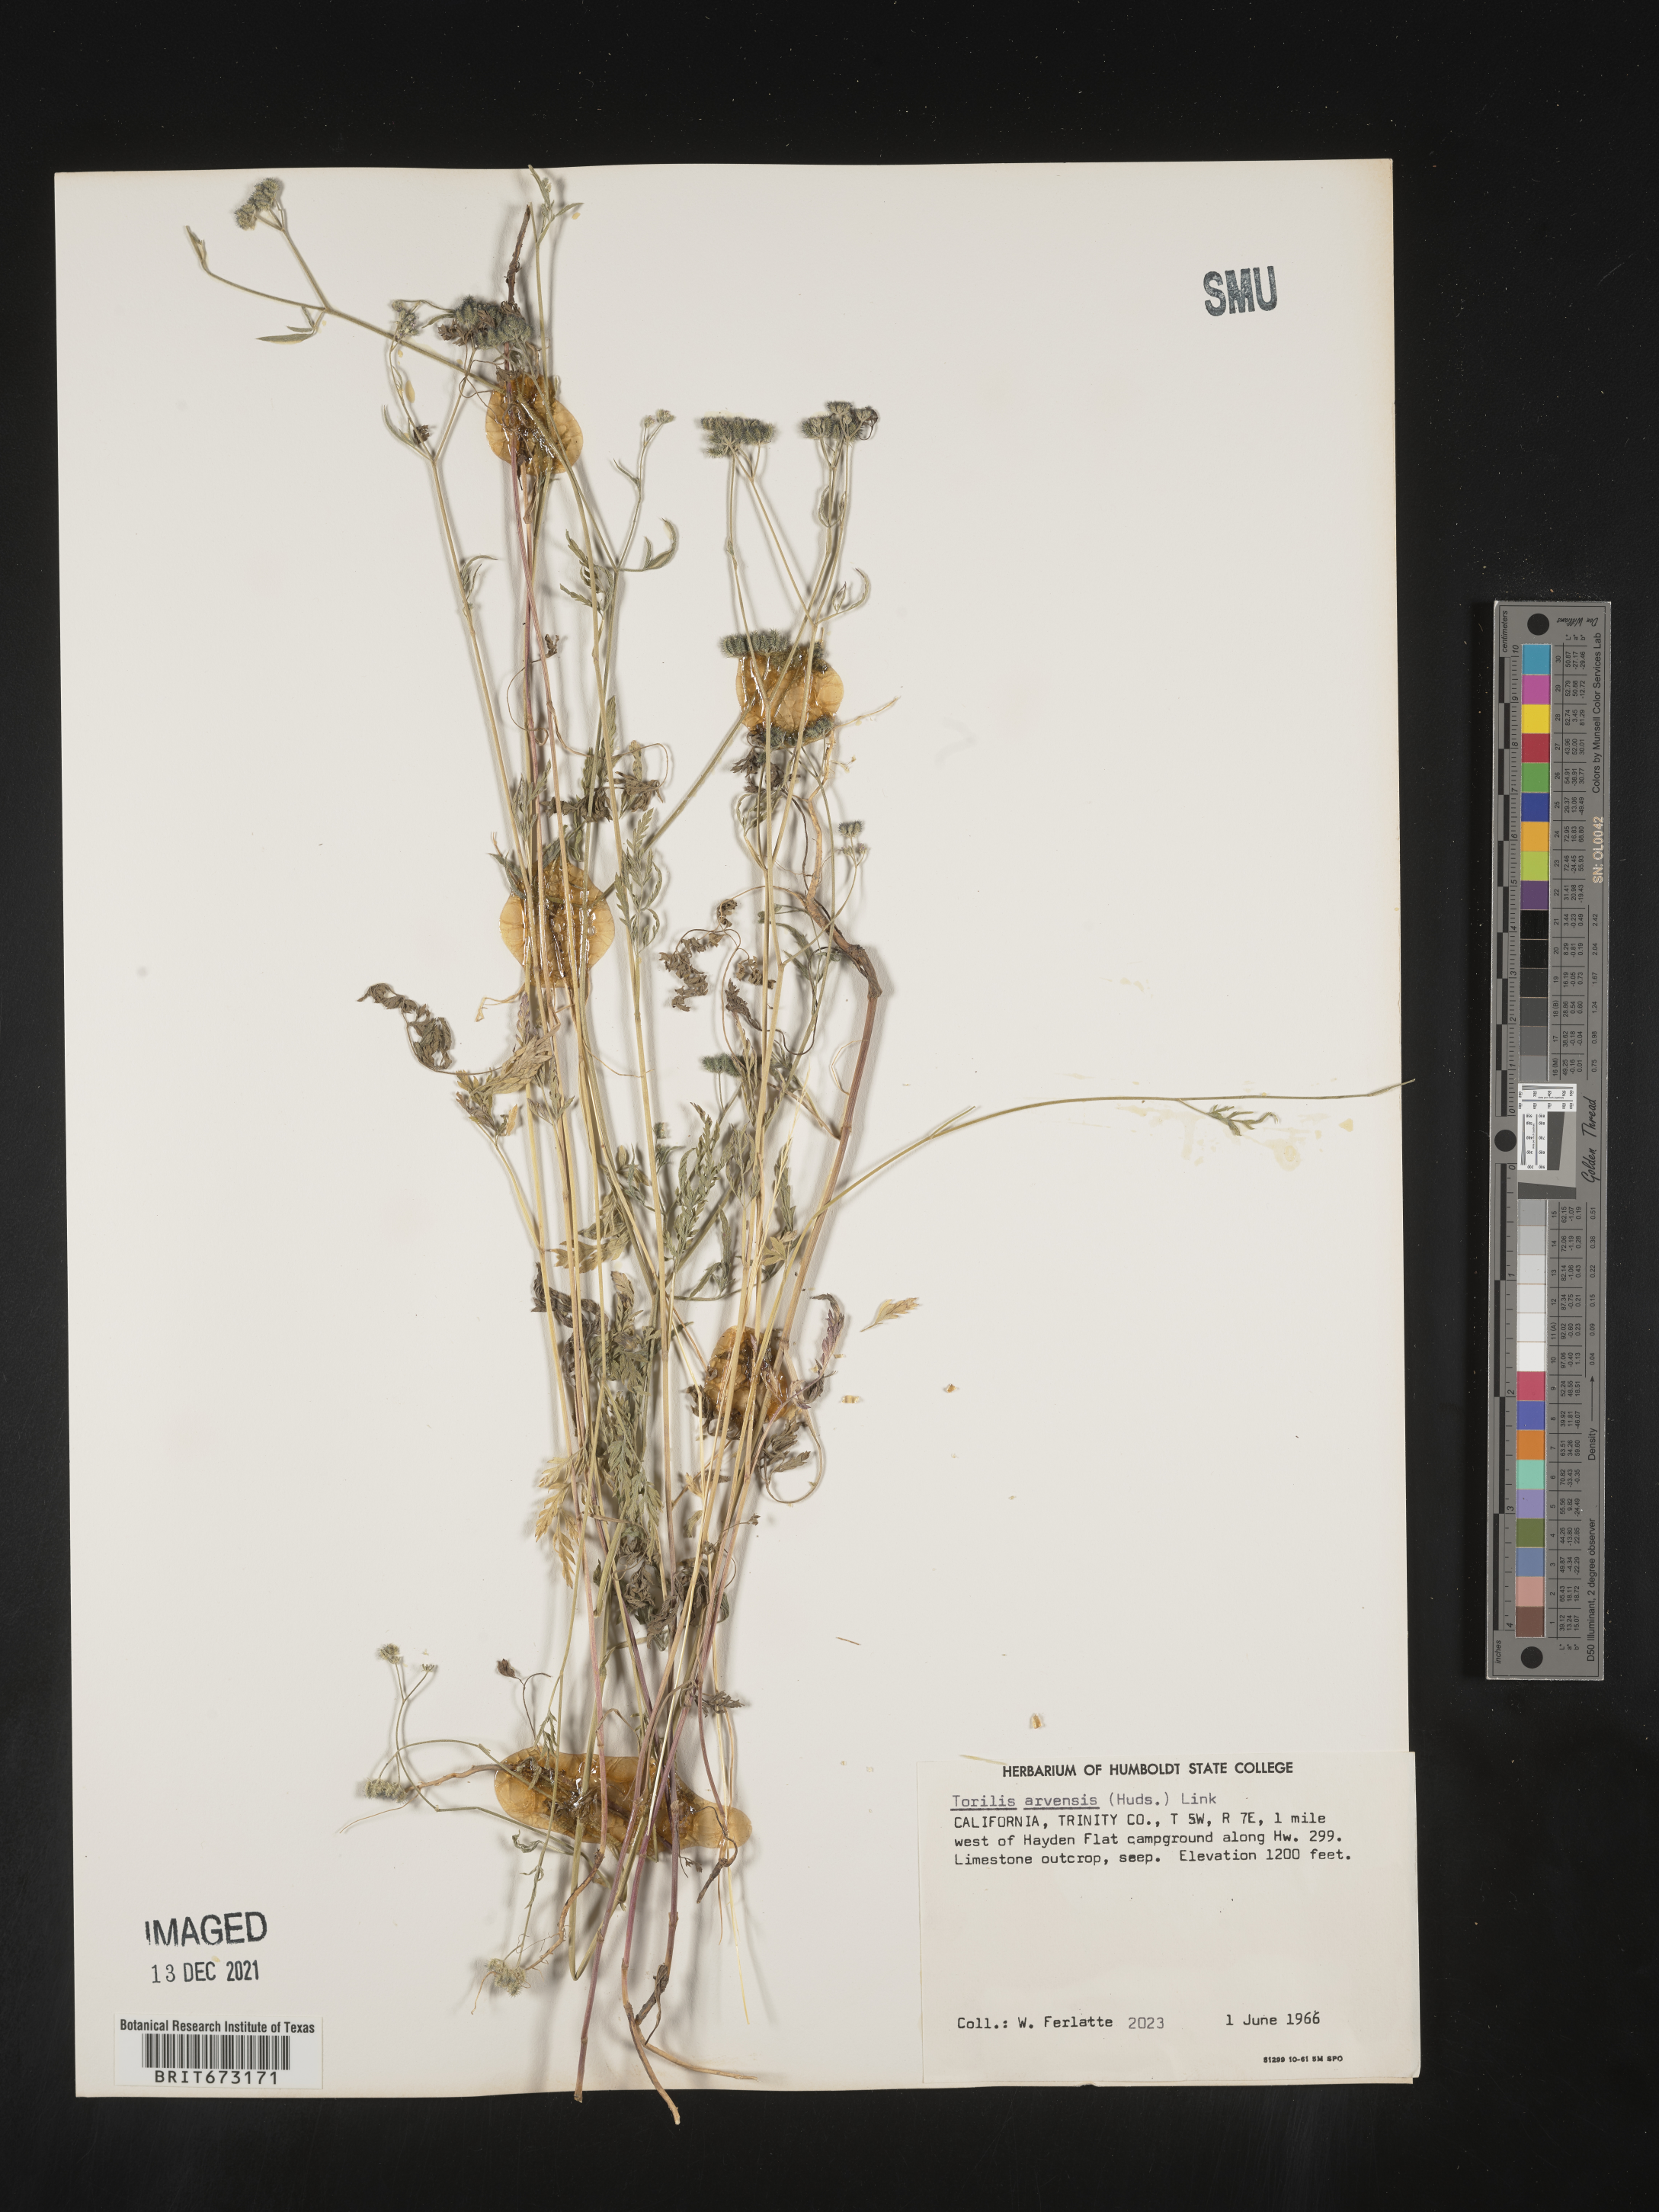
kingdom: Plantae
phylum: Tracheophyta
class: Magnoliopsida
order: Apiales
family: Apiaceae
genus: Torilis
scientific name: Torilis arvensis
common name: Spreading hedge-parsley
